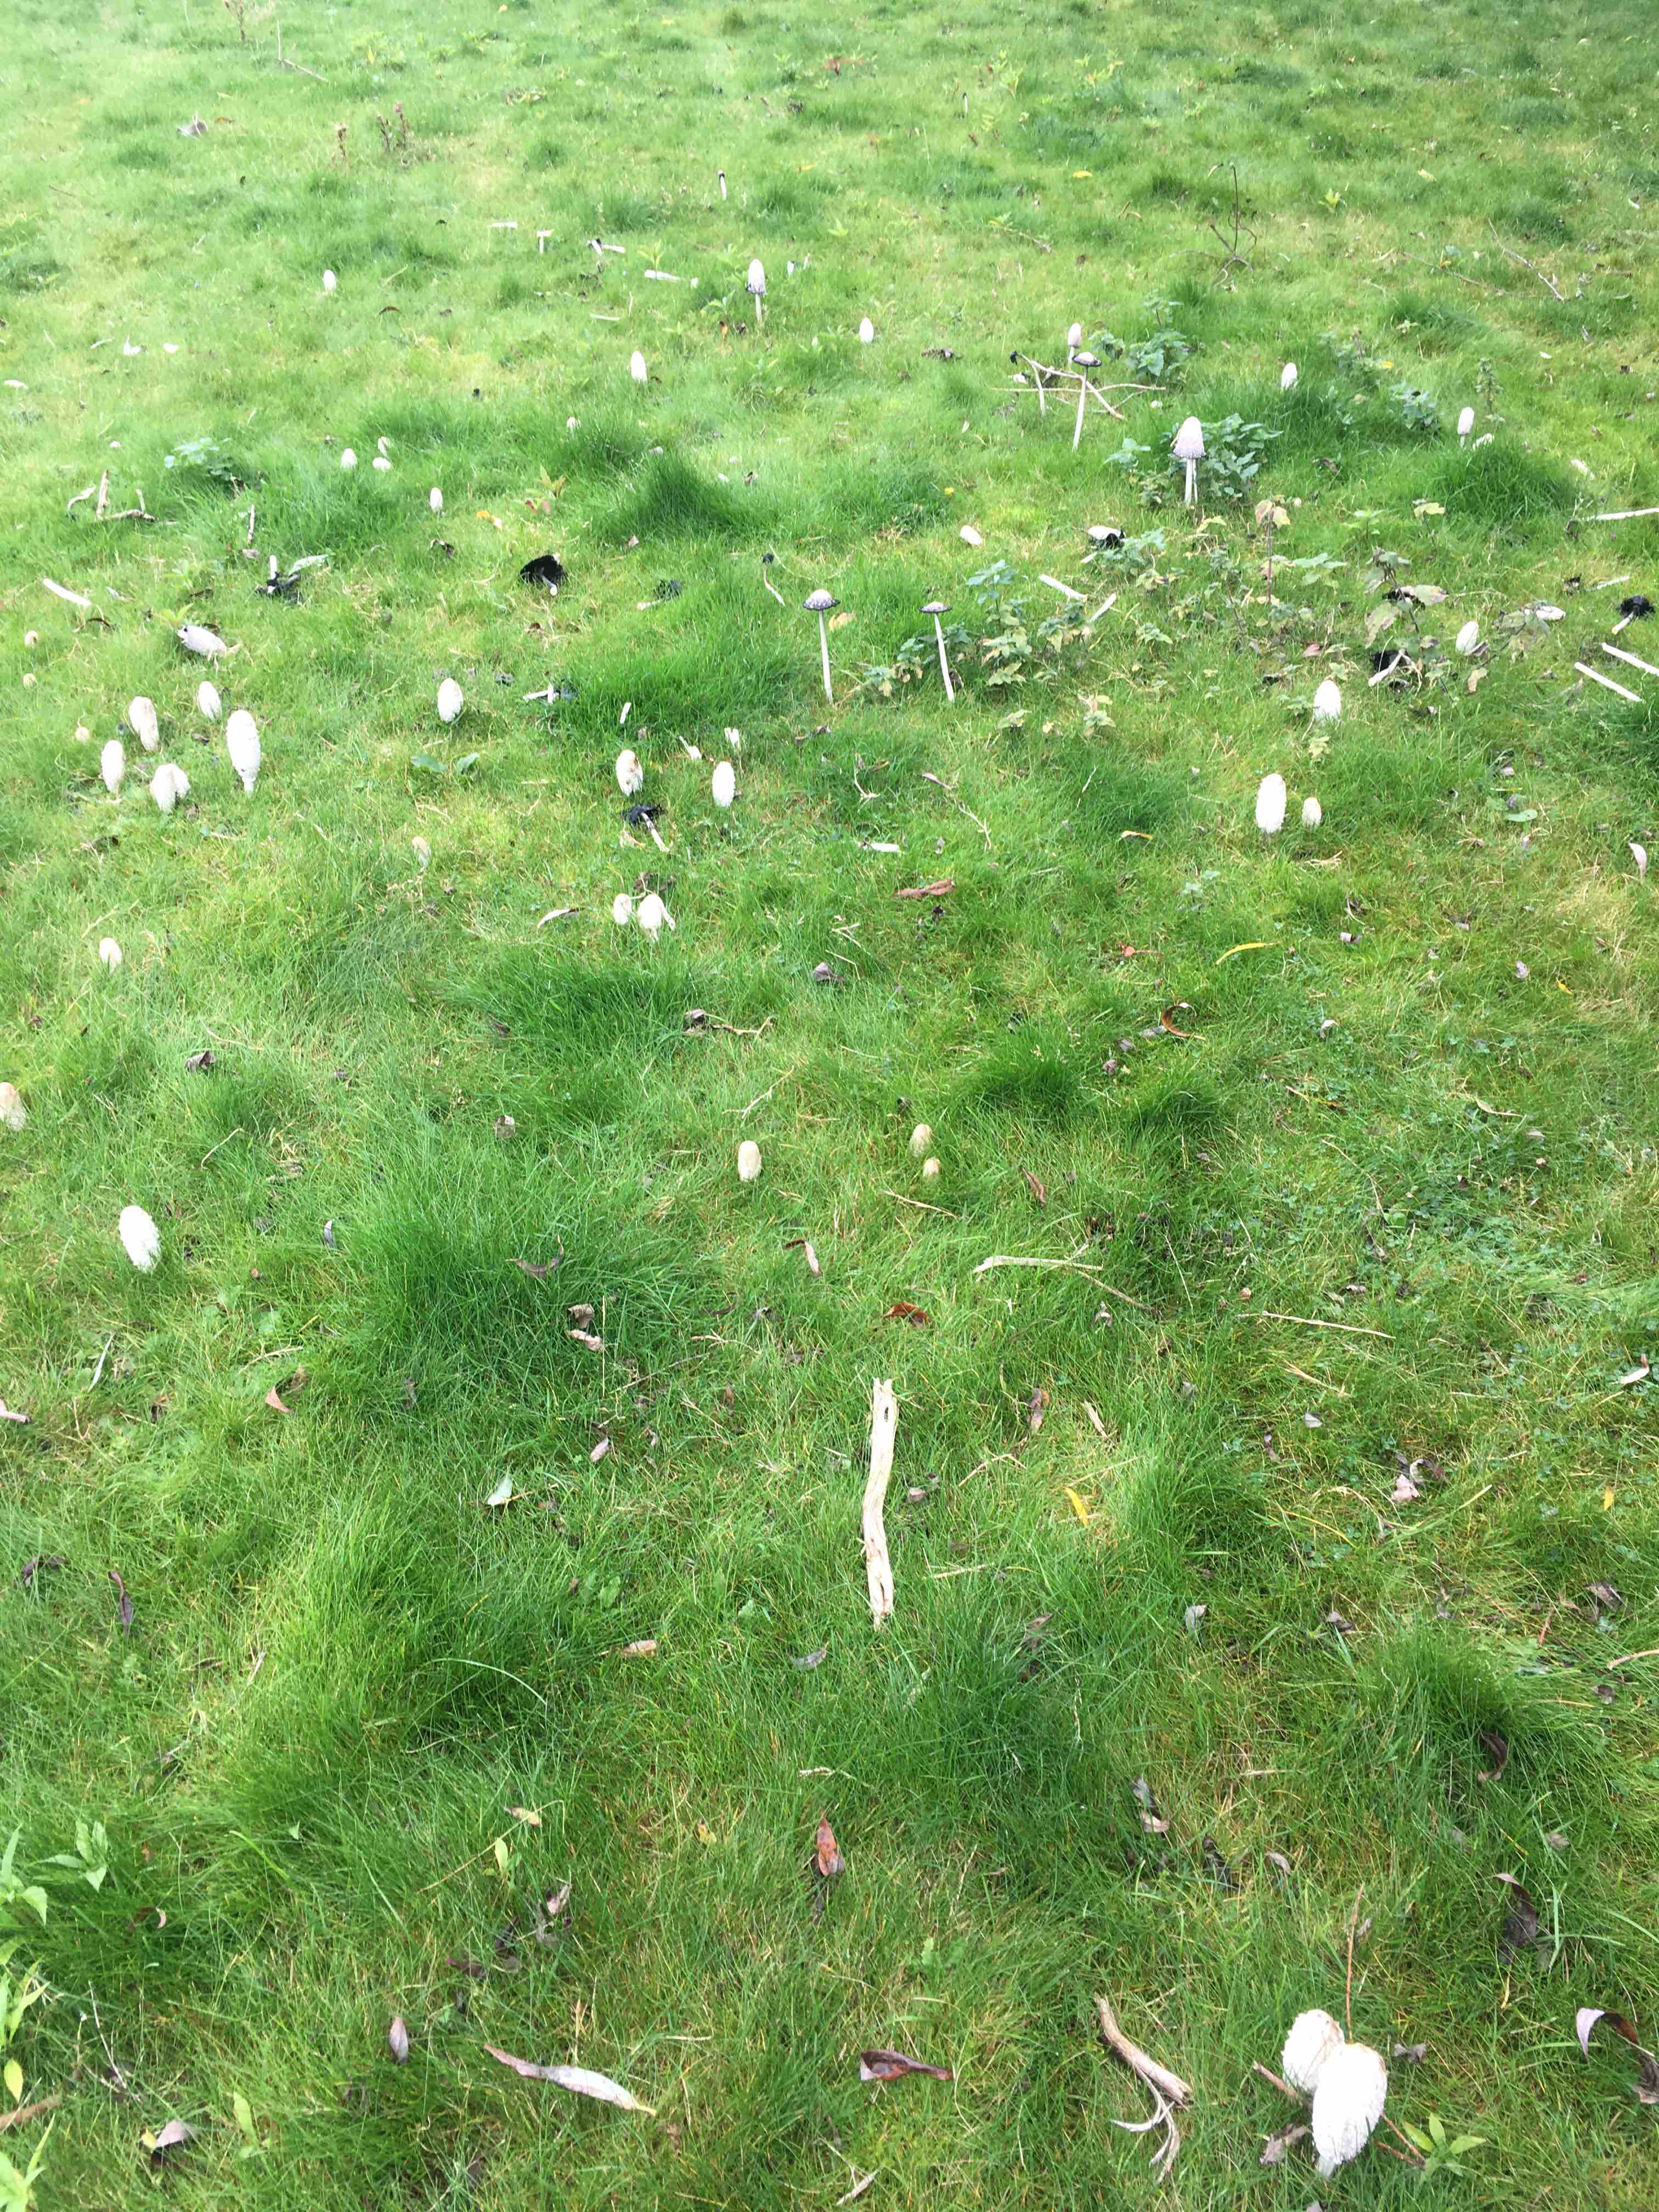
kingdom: Fungi
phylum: Basidiomycota
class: Agaricomycetes
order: Agaricales
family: Agaricaceae
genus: Coprinus
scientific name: Coprinus comatus
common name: stor parykhat
